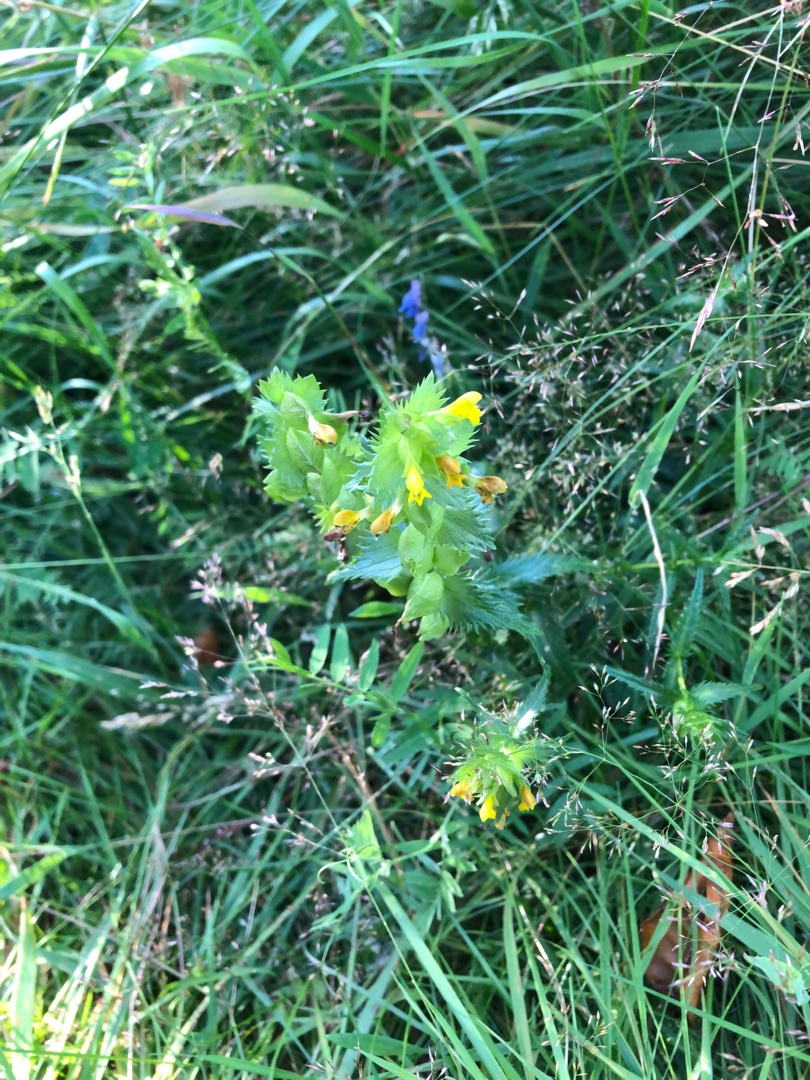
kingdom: Plantae
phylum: Tracheophyta
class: Magnoliopsida
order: Lamiales
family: Orobanchaceae
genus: Rhinanthus
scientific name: Rhinanthus
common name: Stor skjaller
